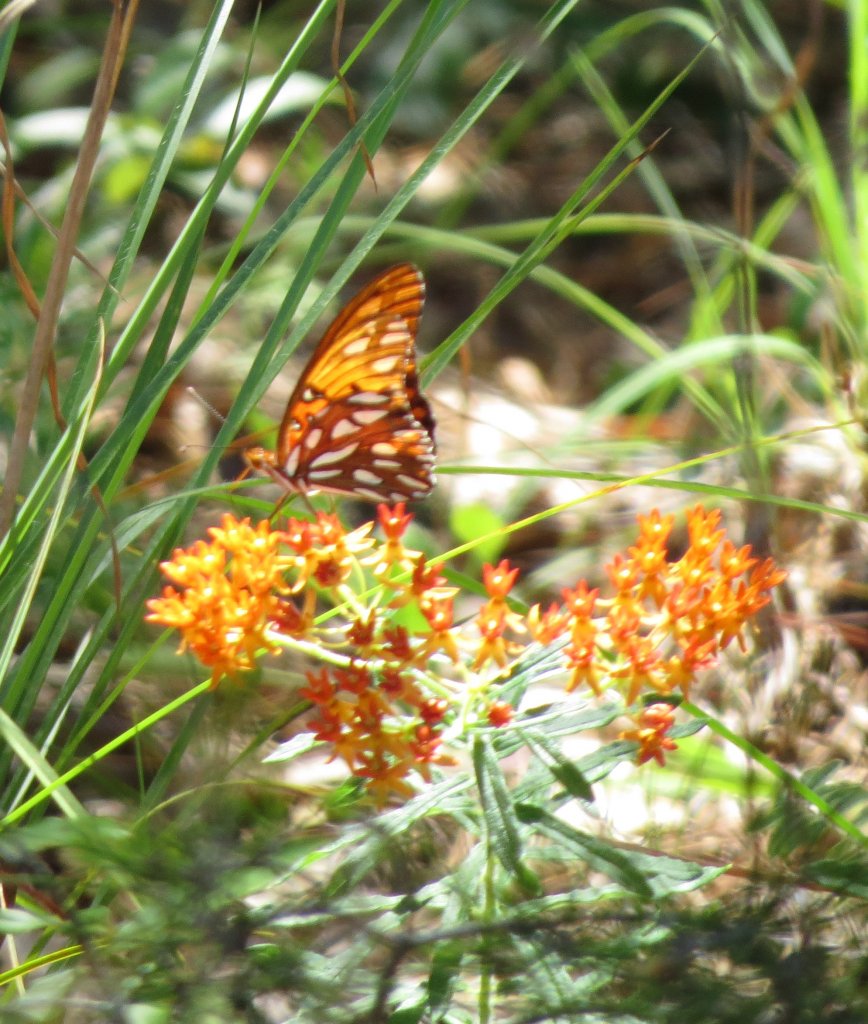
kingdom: Animalia
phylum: Arthropoda
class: Insecta
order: Lepidoptera
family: Nymphalidae
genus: Dione
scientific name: Dione vanillae
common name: Gulf Fritillary
